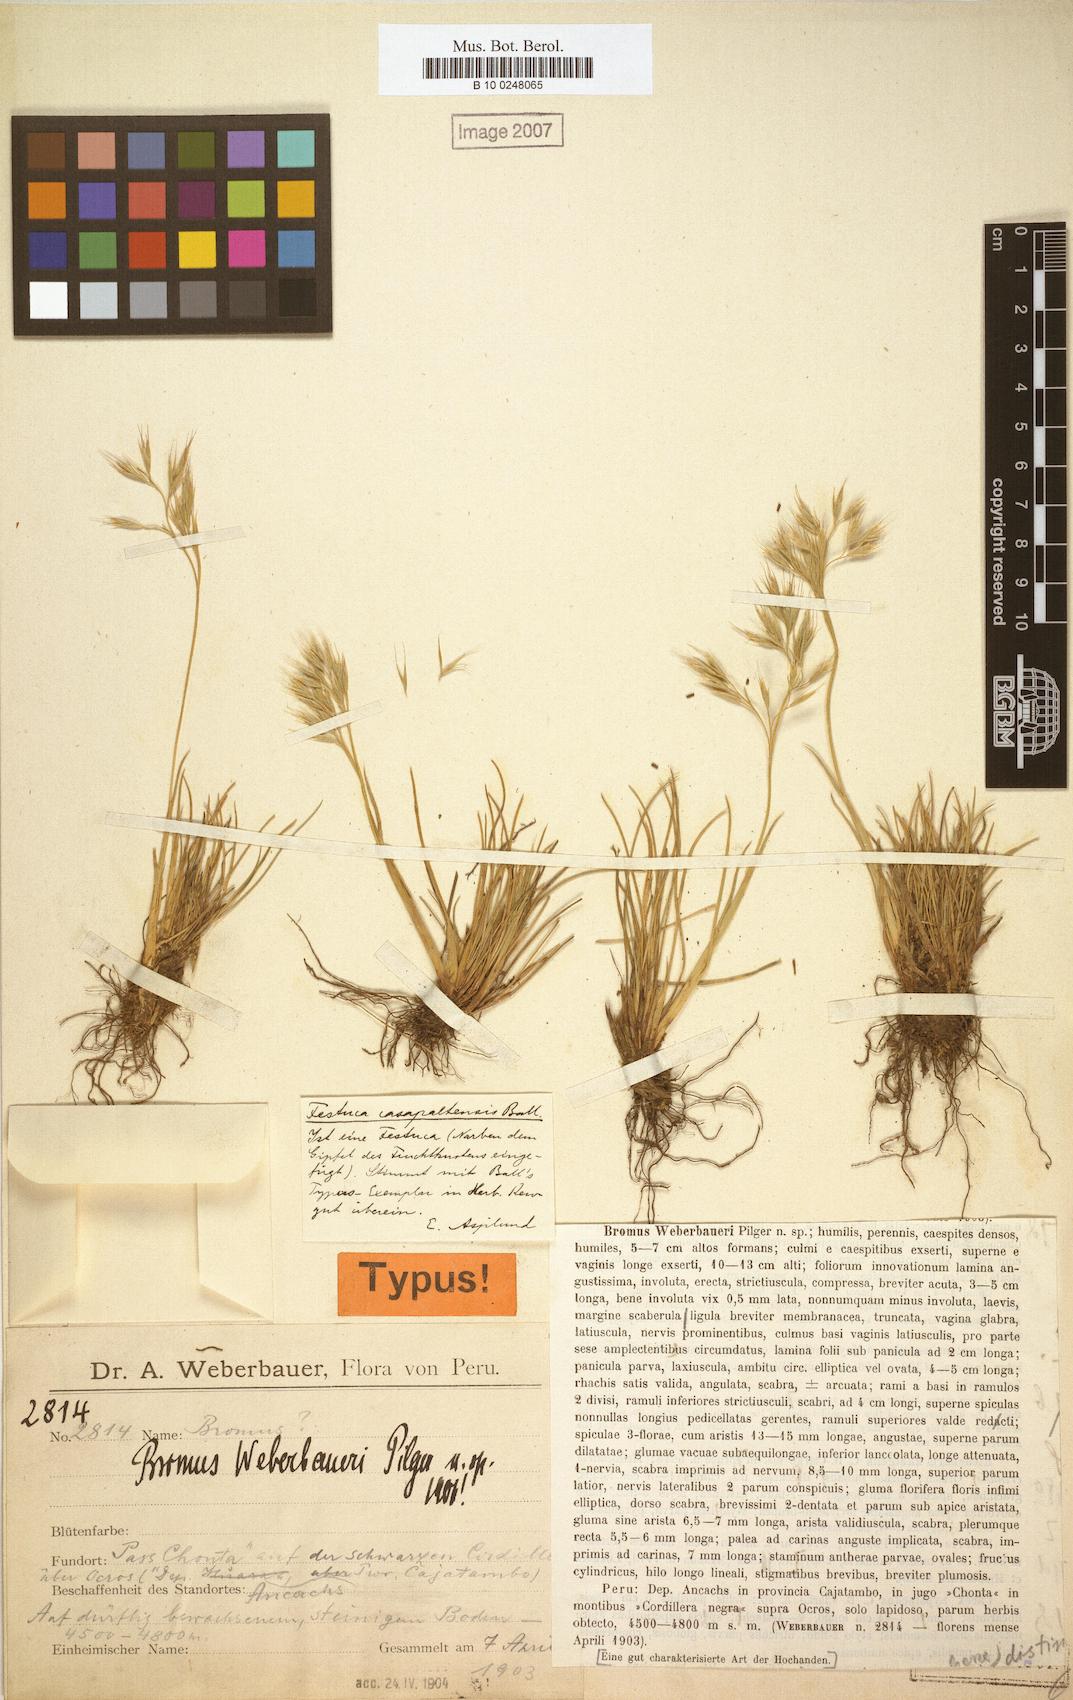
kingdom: Plantae
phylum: Tracheophyta
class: Liliopsida
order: Poales
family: Poaceae
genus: Festuca
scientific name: Festuca casapaltensis
